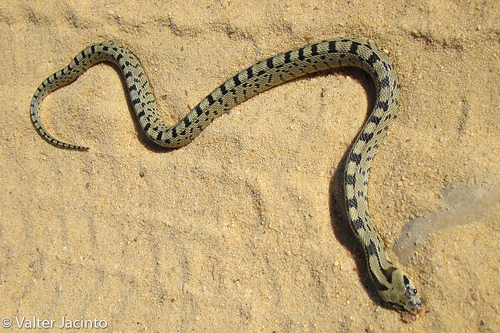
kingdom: Animalia
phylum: Chordata
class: Squamata
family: Colubridae
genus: Zamenis
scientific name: Zamenis scalaris
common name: Ladder snakes
